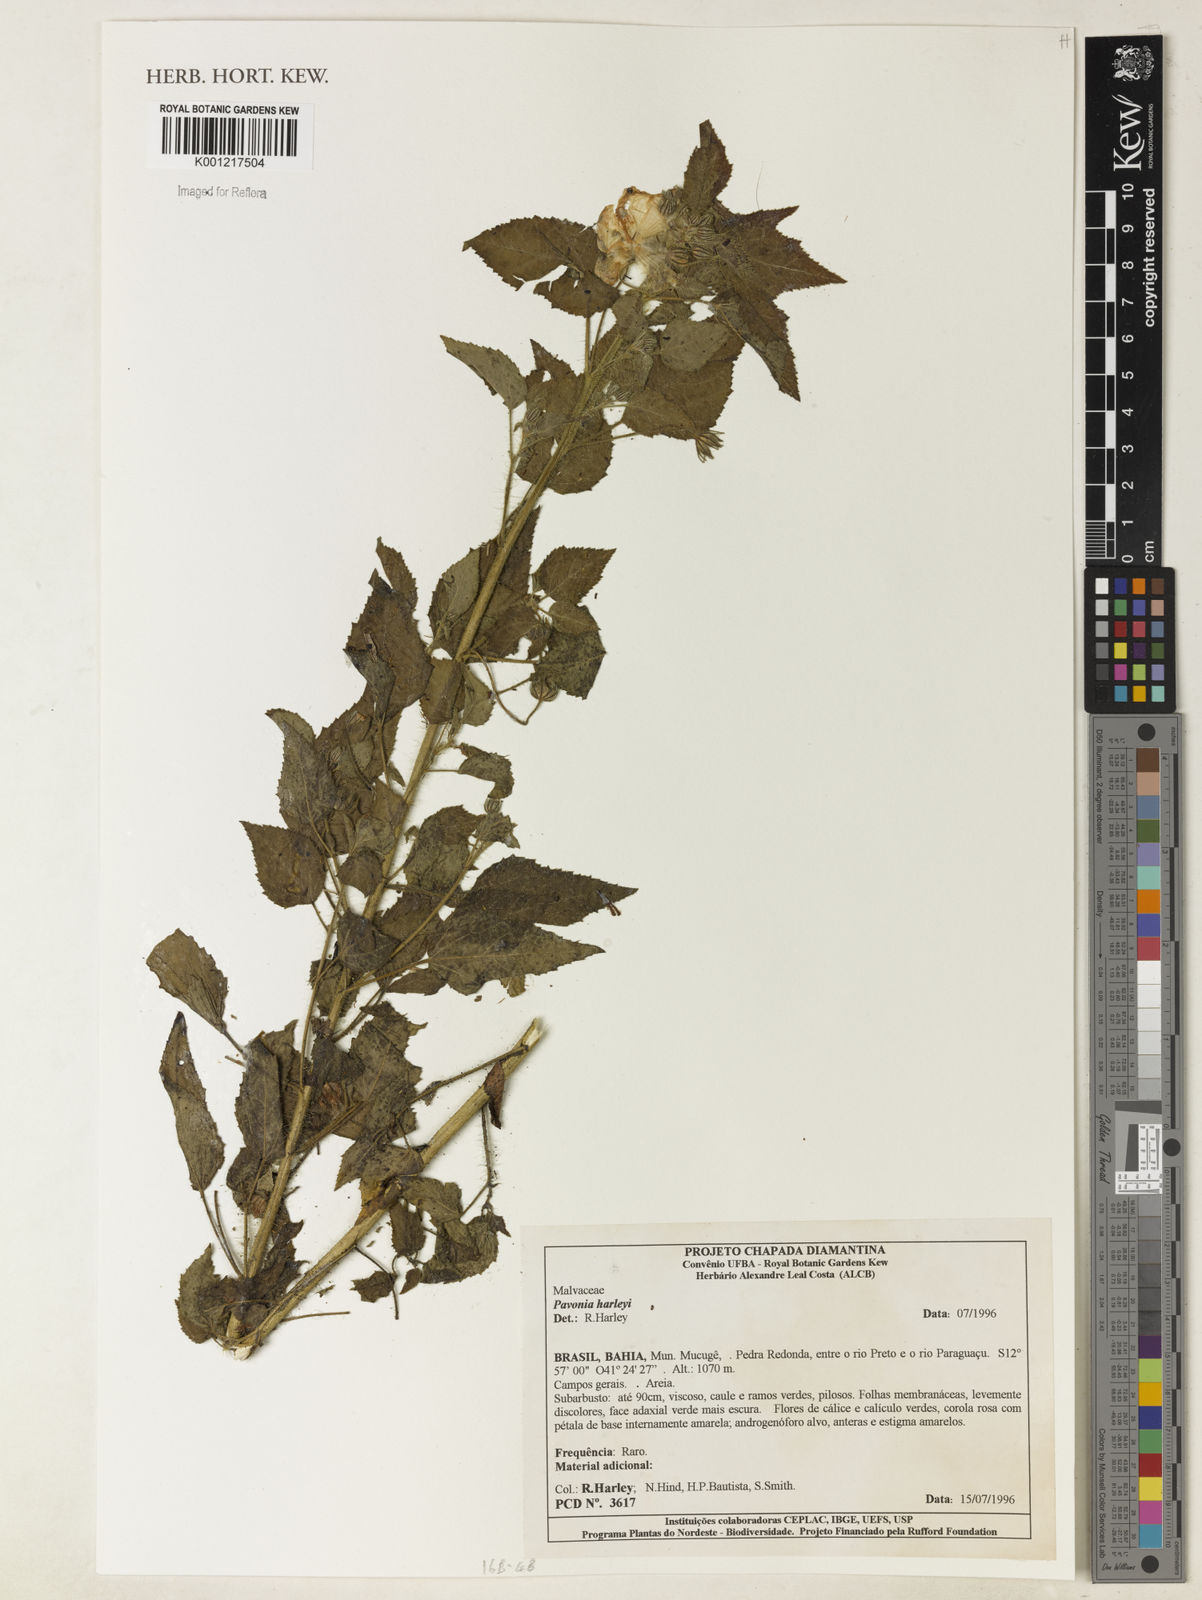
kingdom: Plantae
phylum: Tracheophyta
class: Magnoliopsida
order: Malvales
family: Malvaceae
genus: Pavonia
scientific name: Pavonia harleyi
